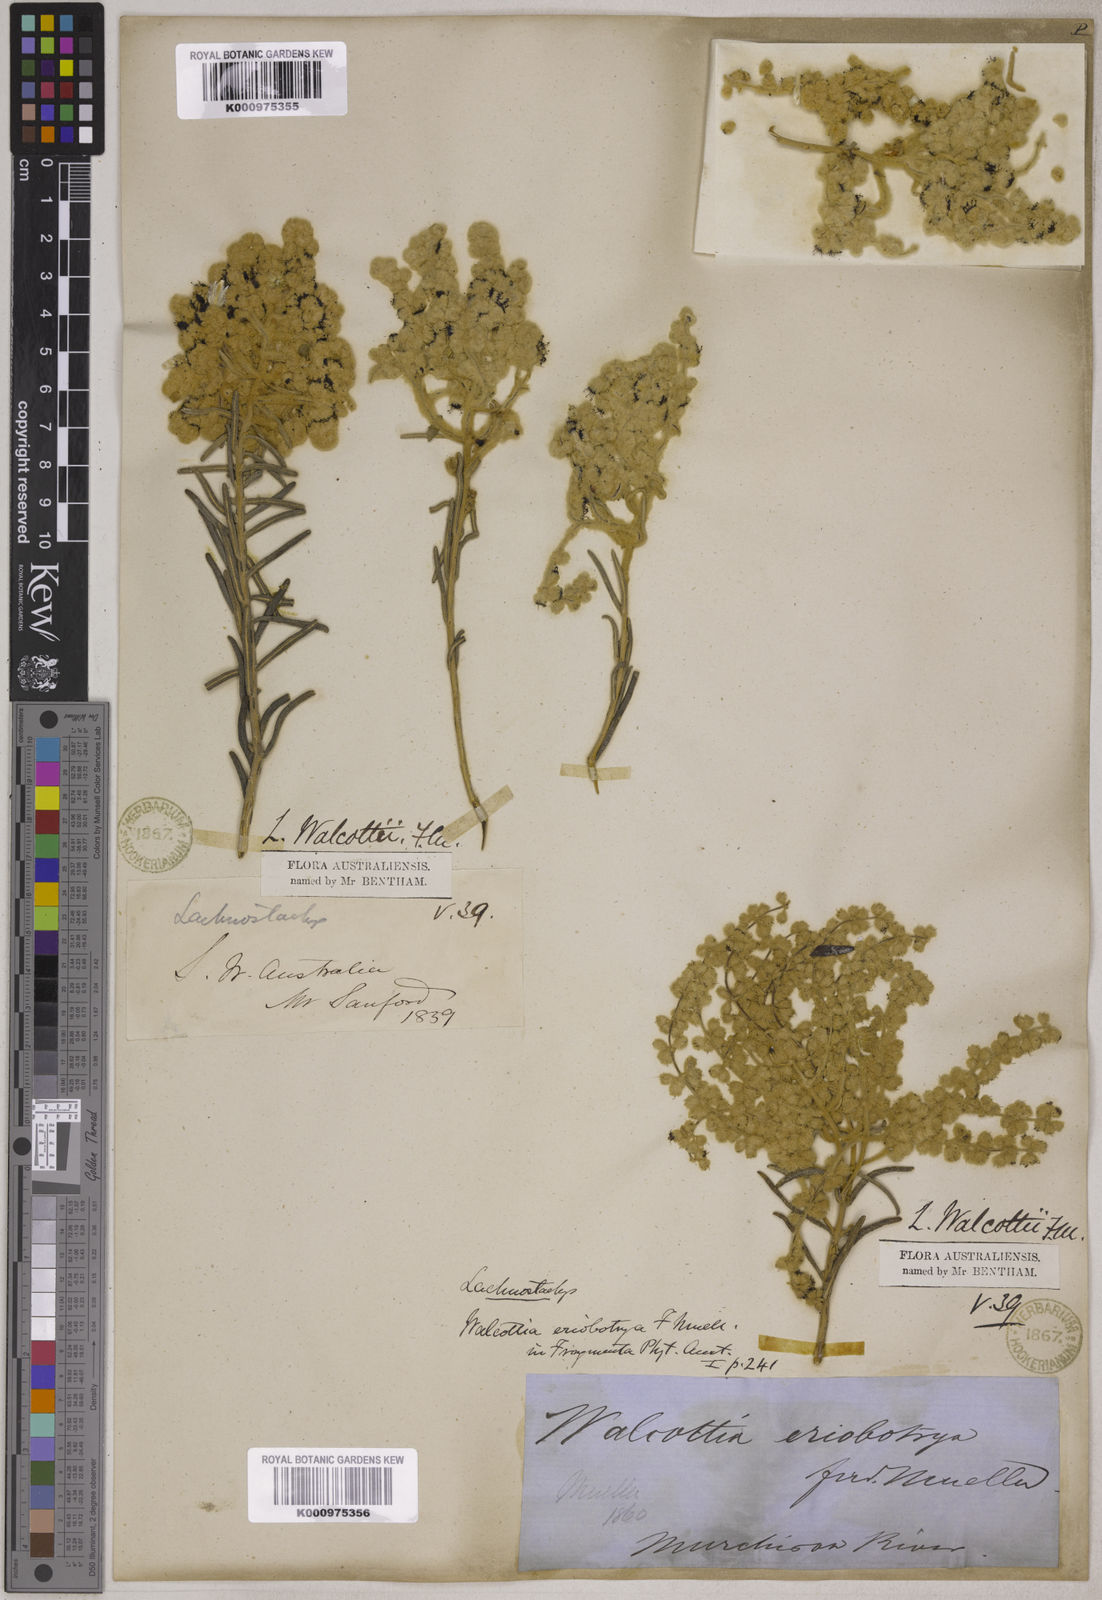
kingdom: Plantae
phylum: Tracheophyta
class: Magnoliopsida
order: Lamiales
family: Lamiaceae
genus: Lachnostachys
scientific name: Lachnostachys eriobotrya
